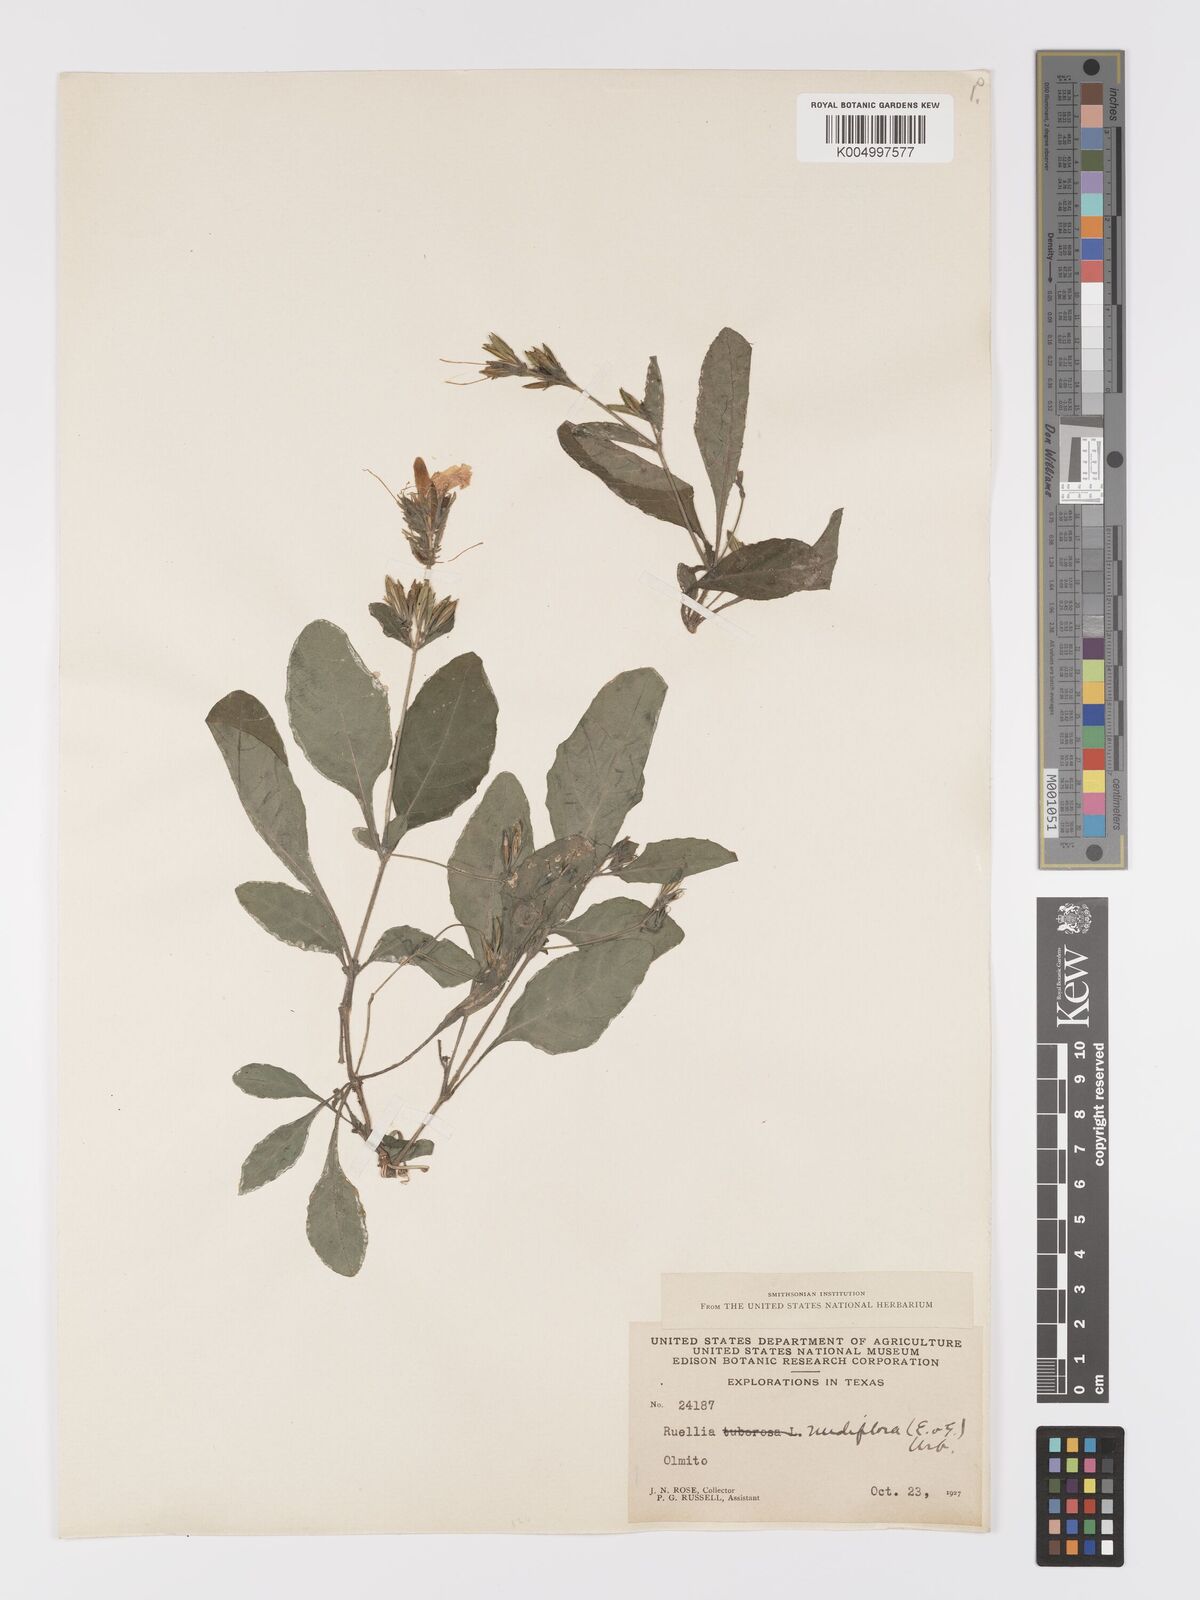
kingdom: Plantae
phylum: Tracheophyta
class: Magnoliopsida
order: Lamiales
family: Acanthaceae
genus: Ruellia
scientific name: Ruellia tuberosa
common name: Devil's bit
